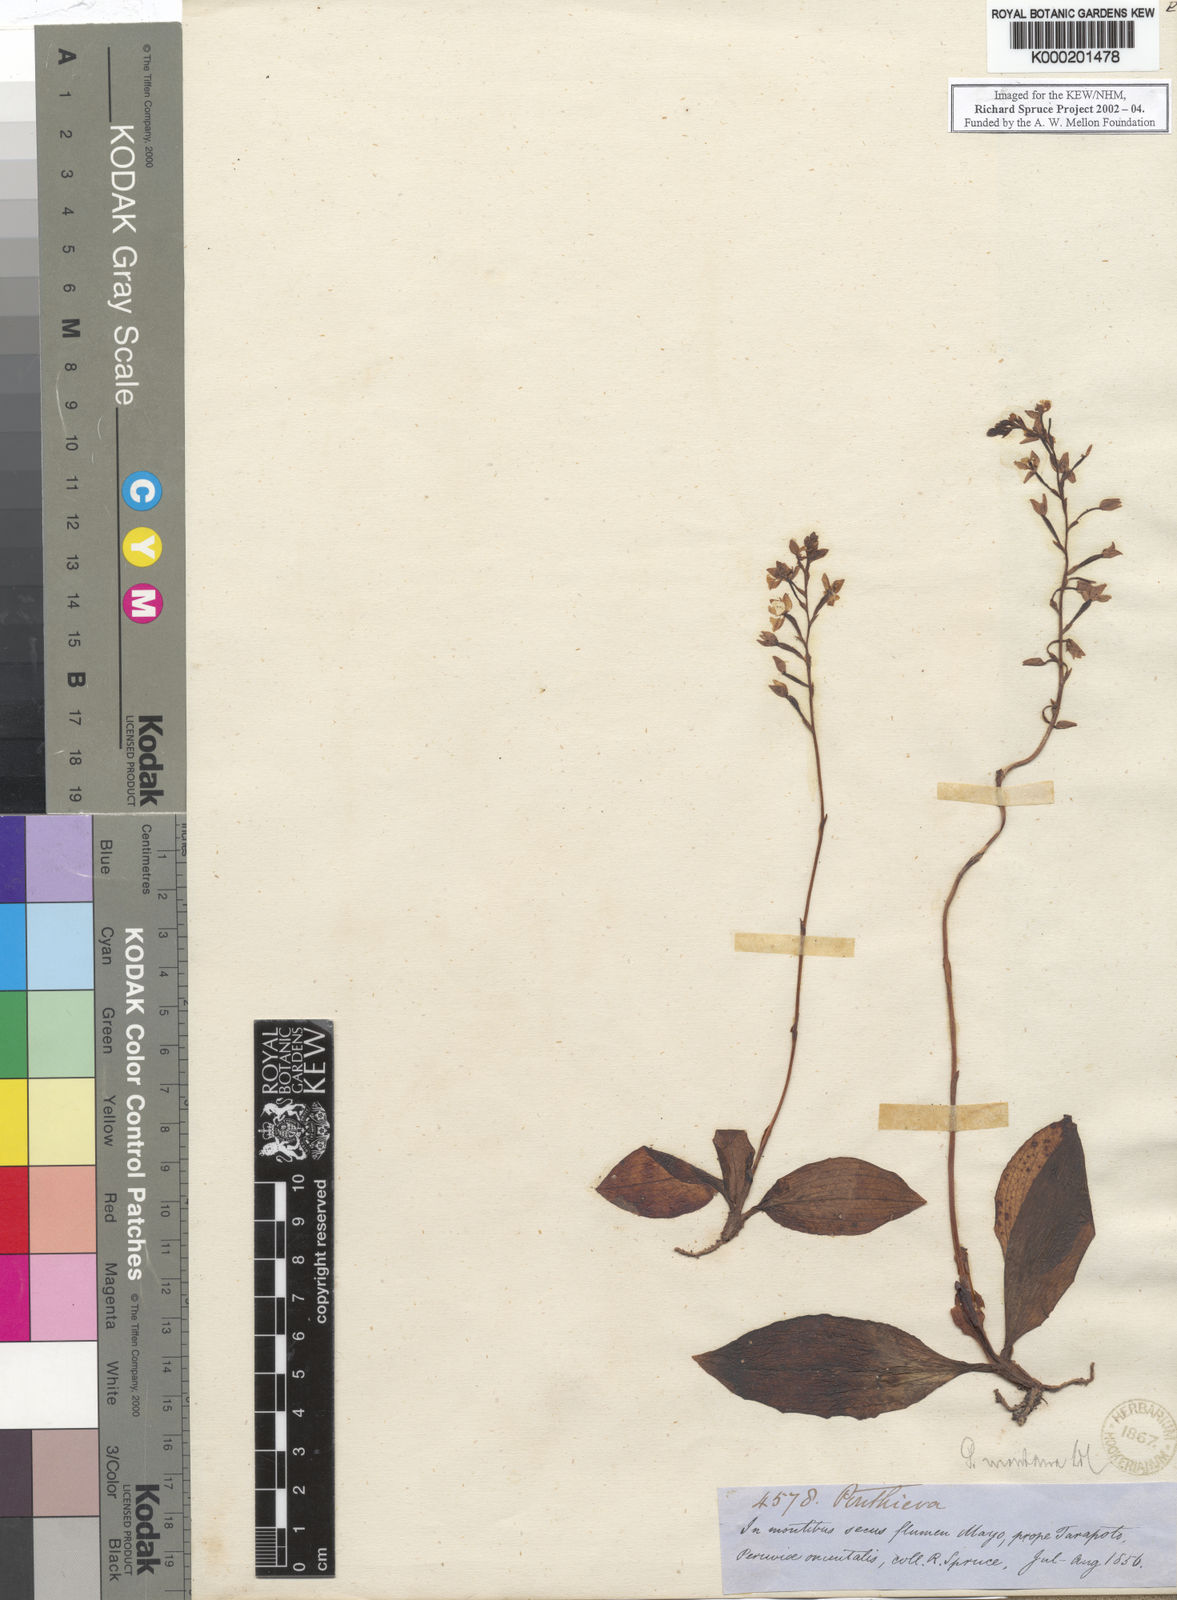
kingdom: Plantae
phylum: Tracheophyta
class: Liliopsida
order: Asparagales
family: Orchidaceae
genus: Ponthieva
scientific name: Ponthieva pubescens
